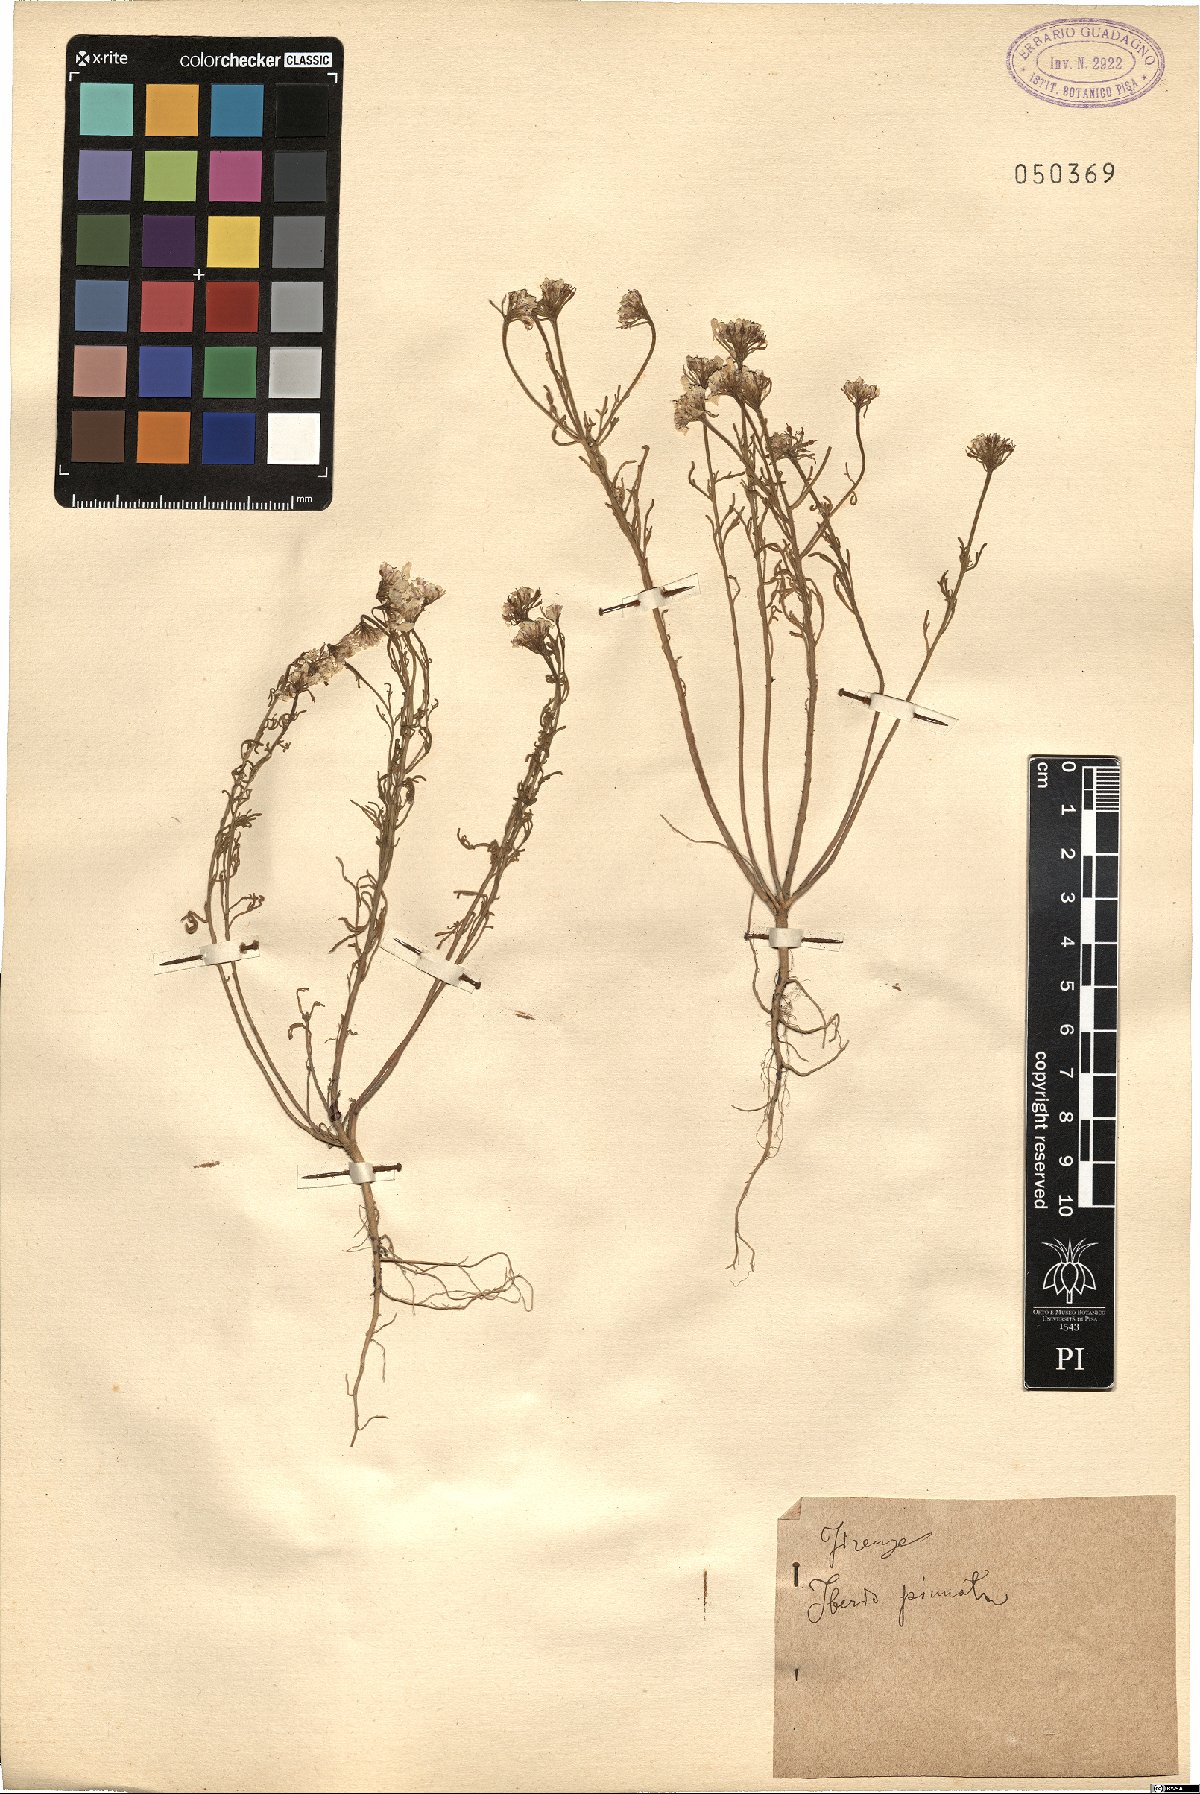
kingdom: Plantae
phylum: Tracheophyta
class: Magnoliopsida
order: Brassicales
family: Brassicaceae
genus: Iberis
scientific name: Iberis pinnata
